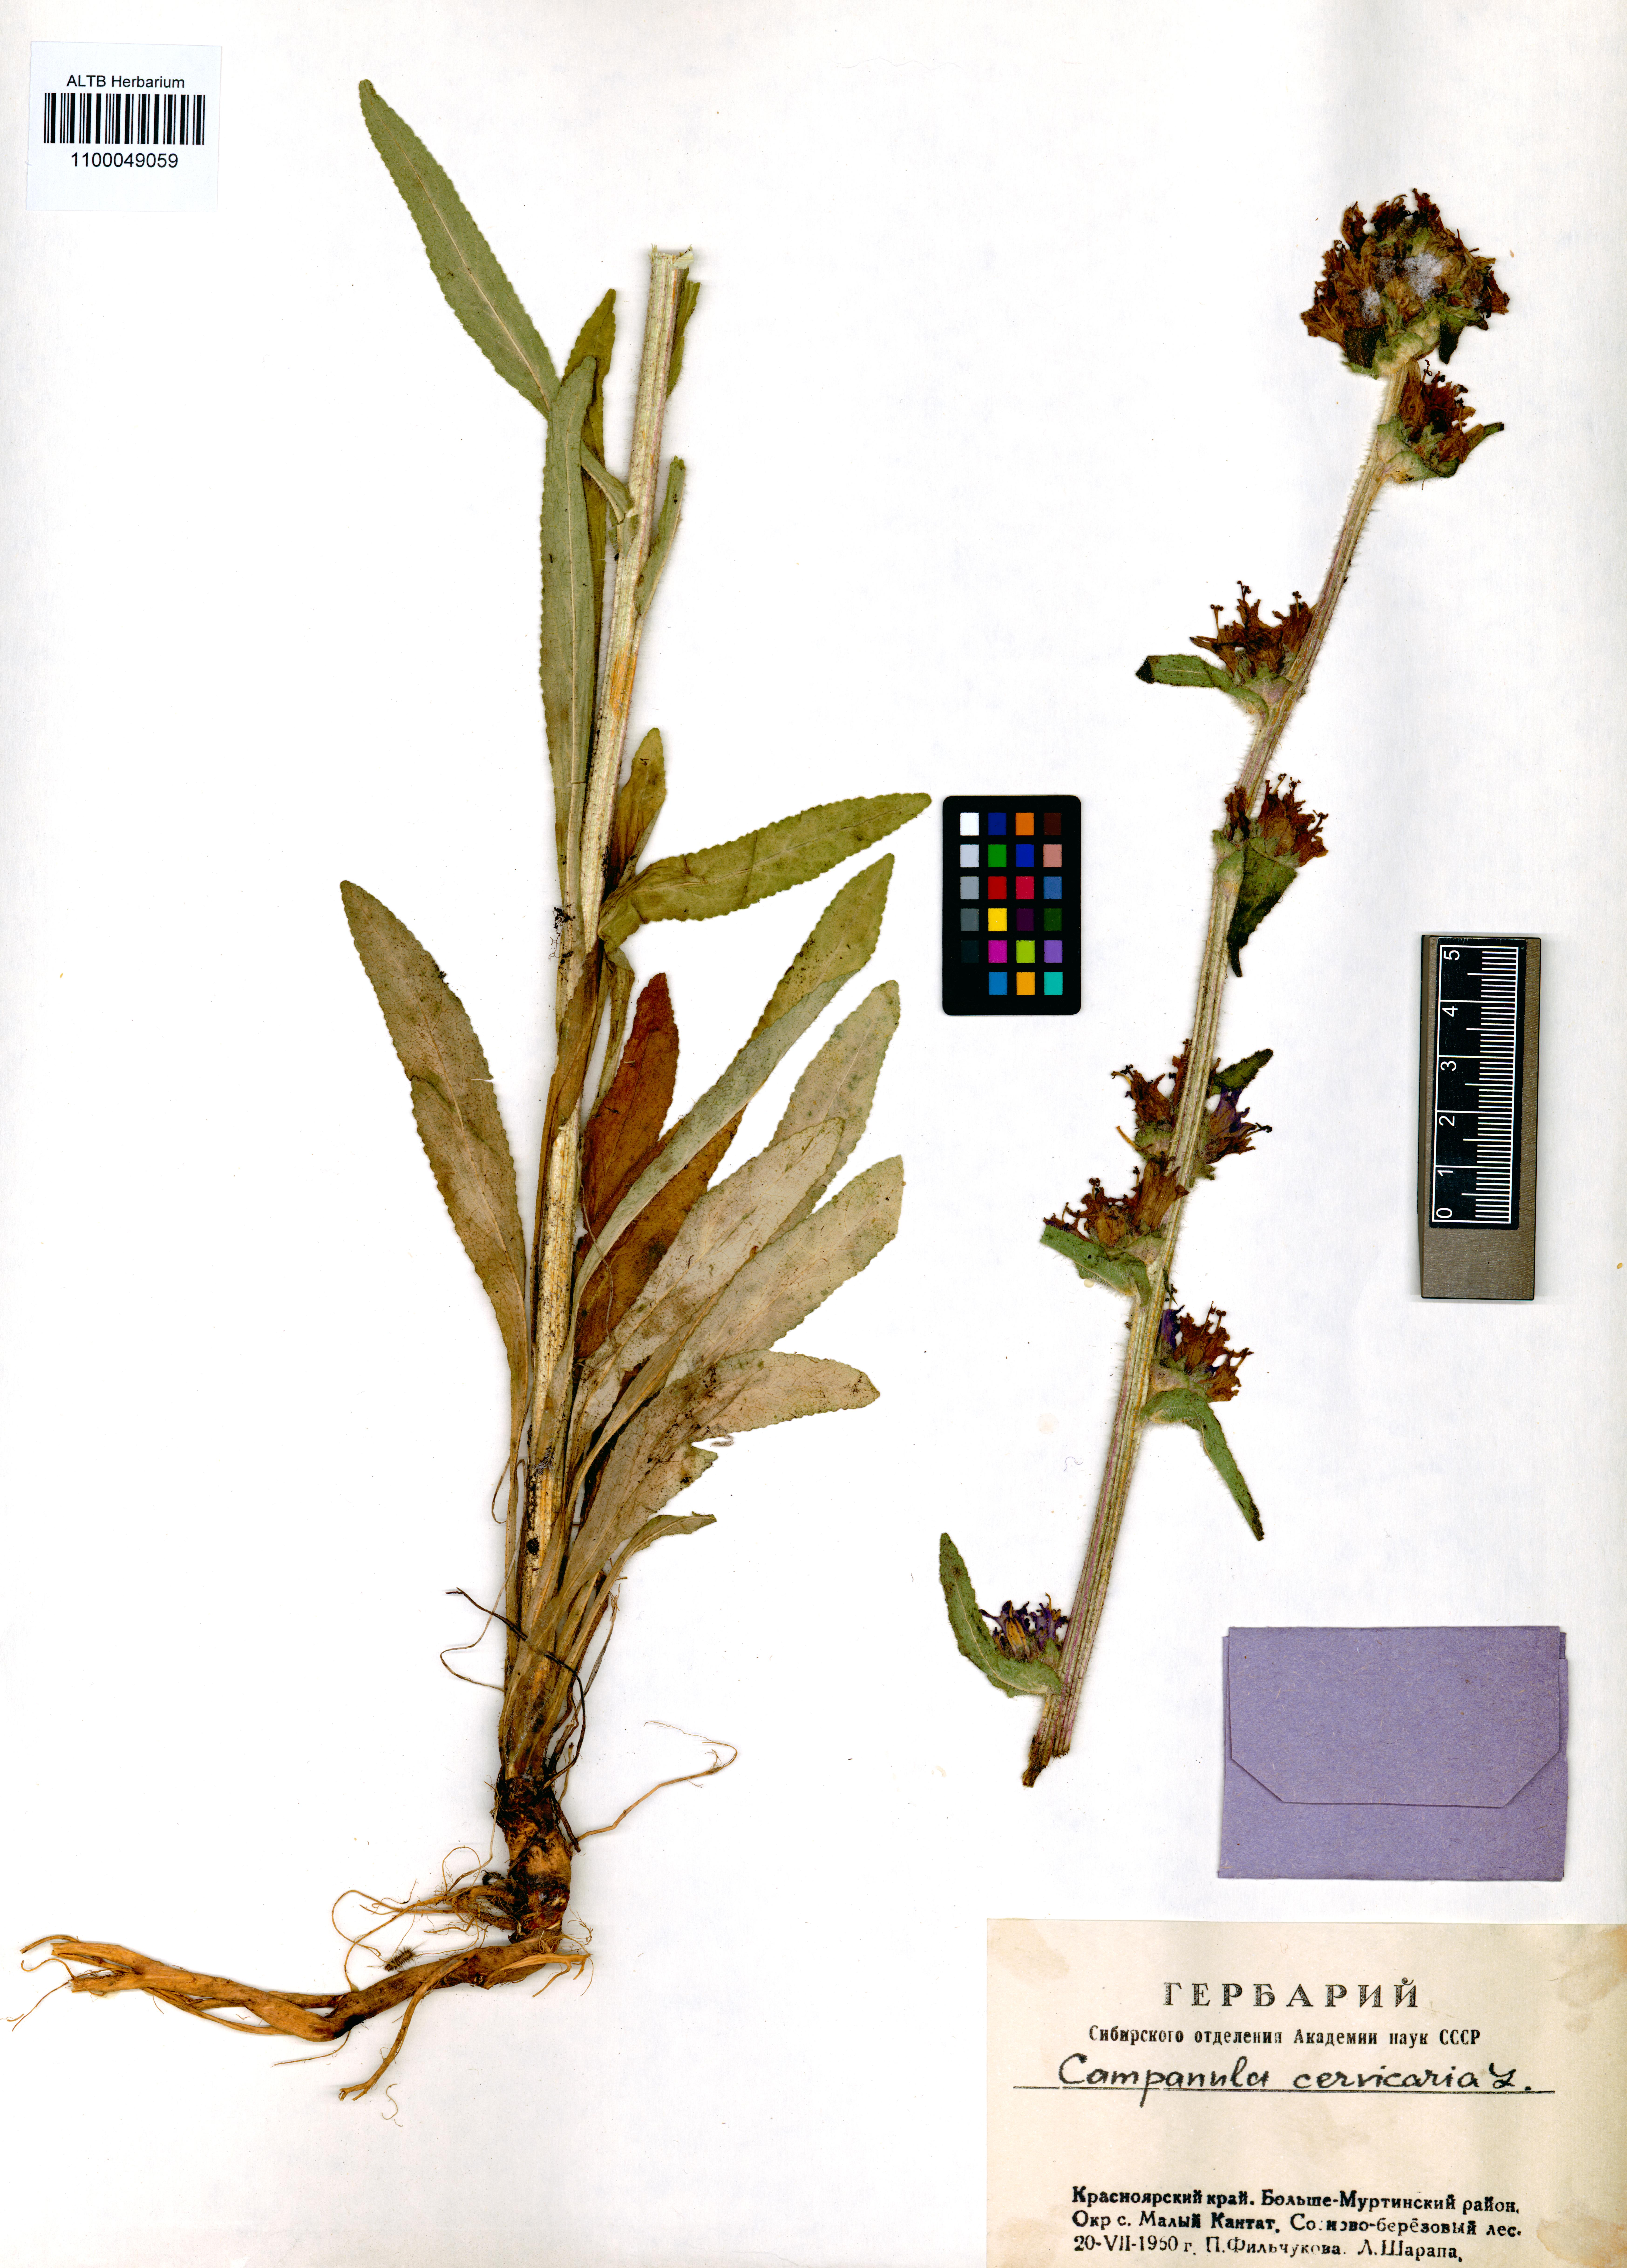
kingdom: Plantae
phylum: Tracheophyta
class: Magnoliopsida
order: Asterales
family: Campanulaceae
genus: Campanula
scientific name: Campanula cervicaria
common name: Bristly bellflower
